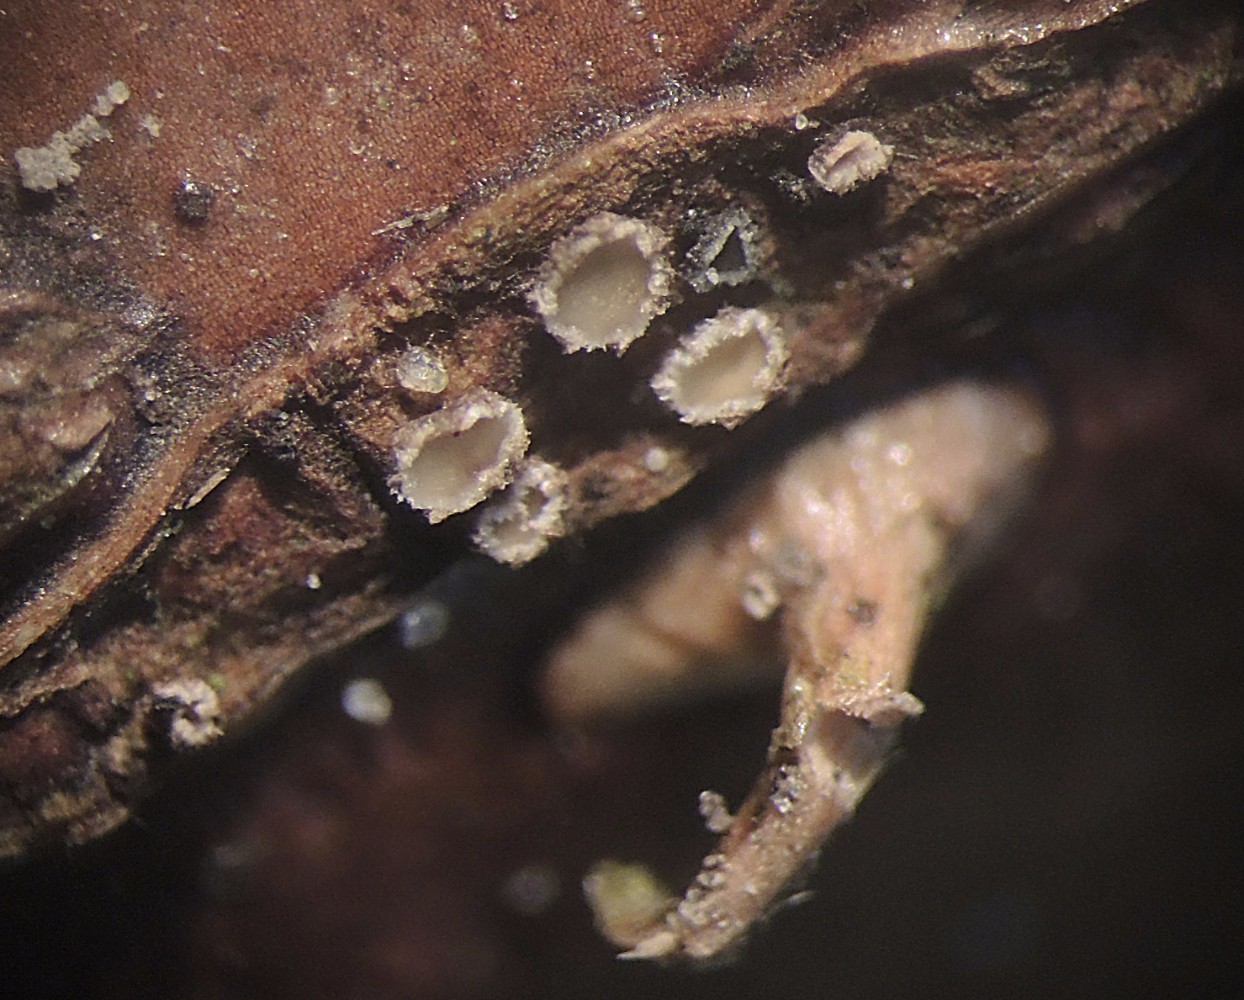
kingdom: Fungi
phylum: Ascomycota
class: Leotiomycetes
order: Helotiales
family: Mollisiaceae
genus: Mollisia
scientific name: Mollisia rosae
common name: rose-gråskive
